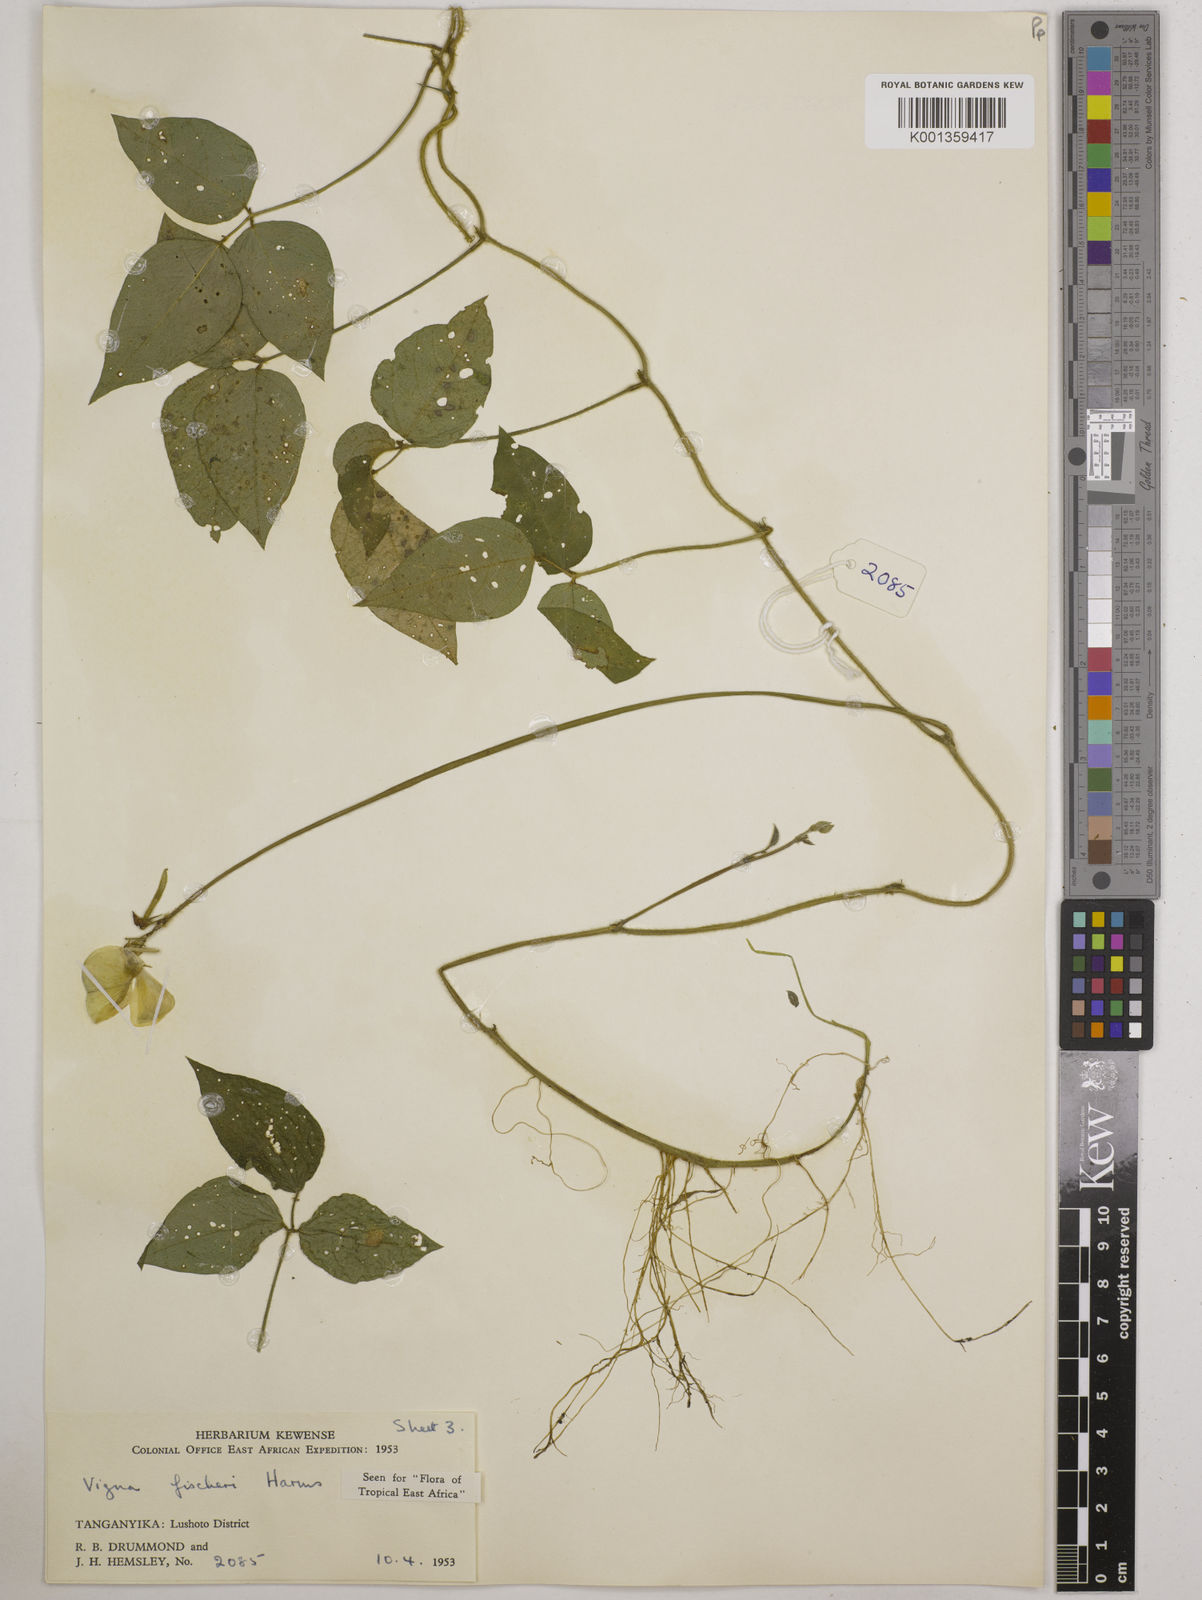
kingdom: Plantae
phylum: Tracheophyta
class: Magnoliopsida
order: Fabales
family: Fabaceae
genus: Vigna
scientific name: Vigna fischeri
